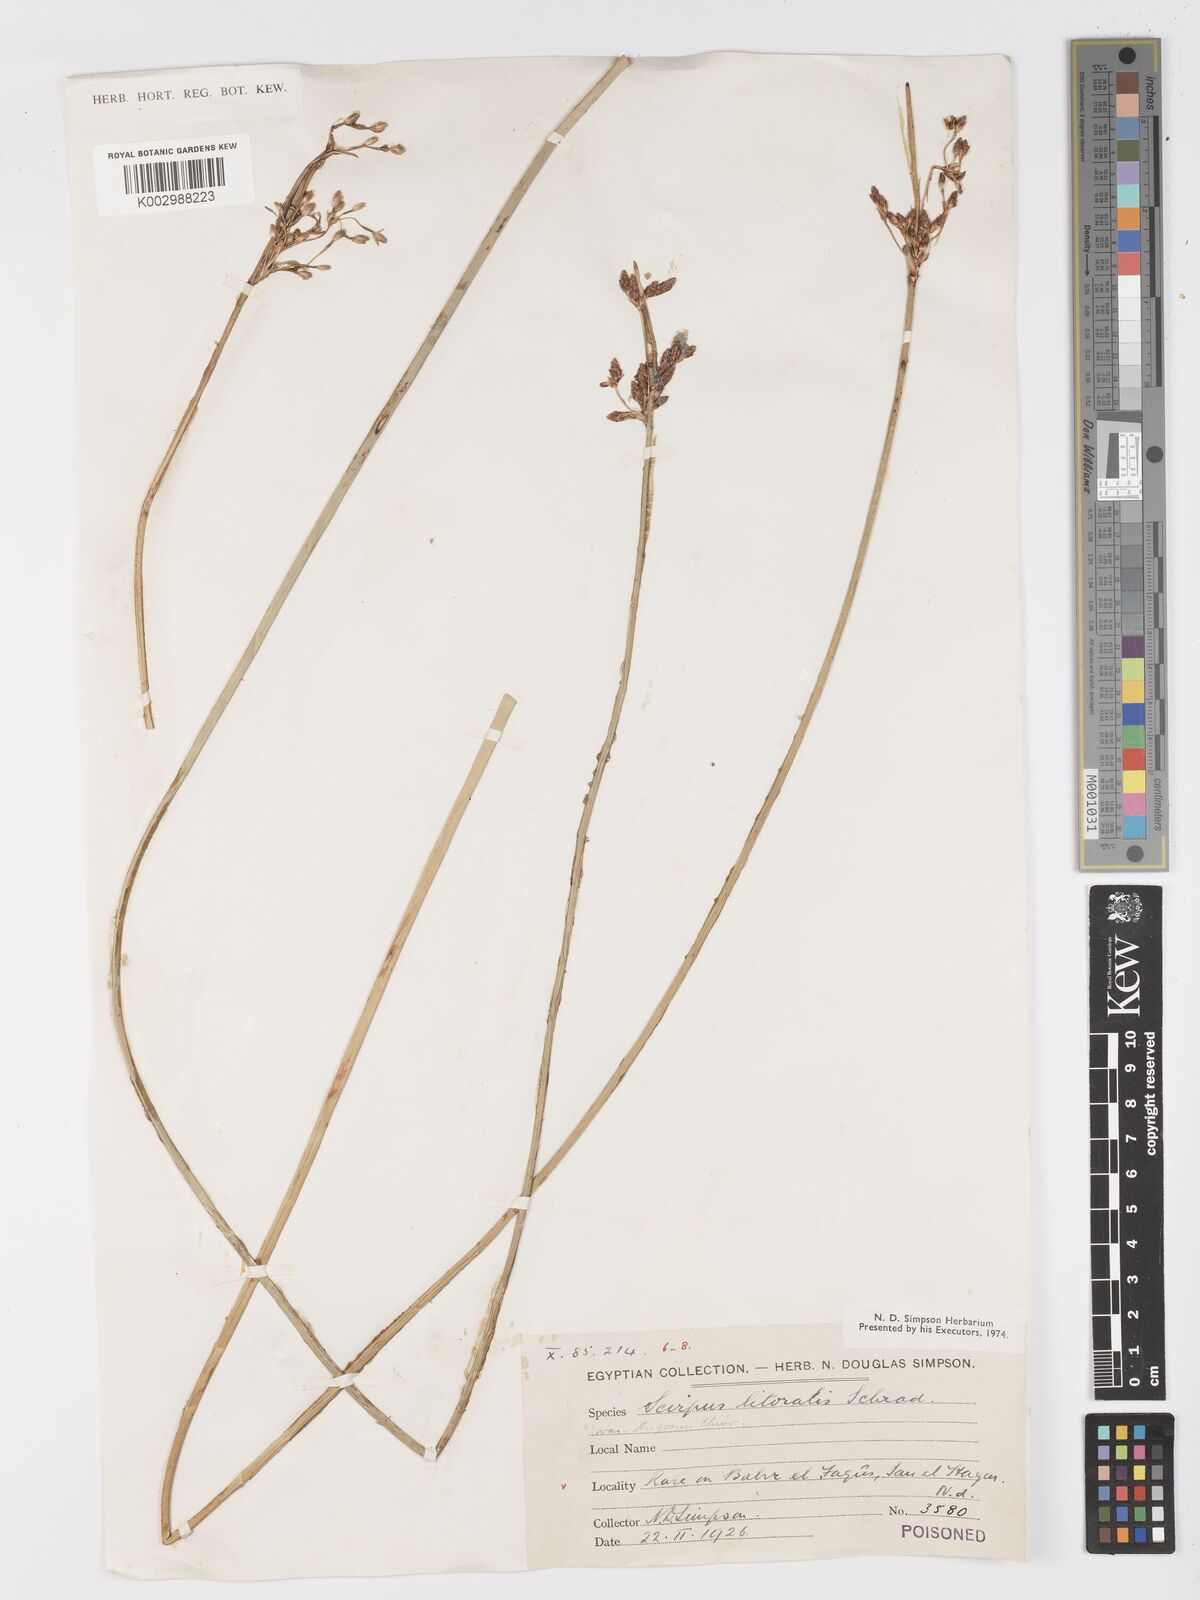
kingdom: Plantae
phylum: Tracheophyta
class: Liliopsida
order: Poales
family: Cyperaceae
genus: Schoenoplectus
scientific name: Schoenoplectus litoralis
